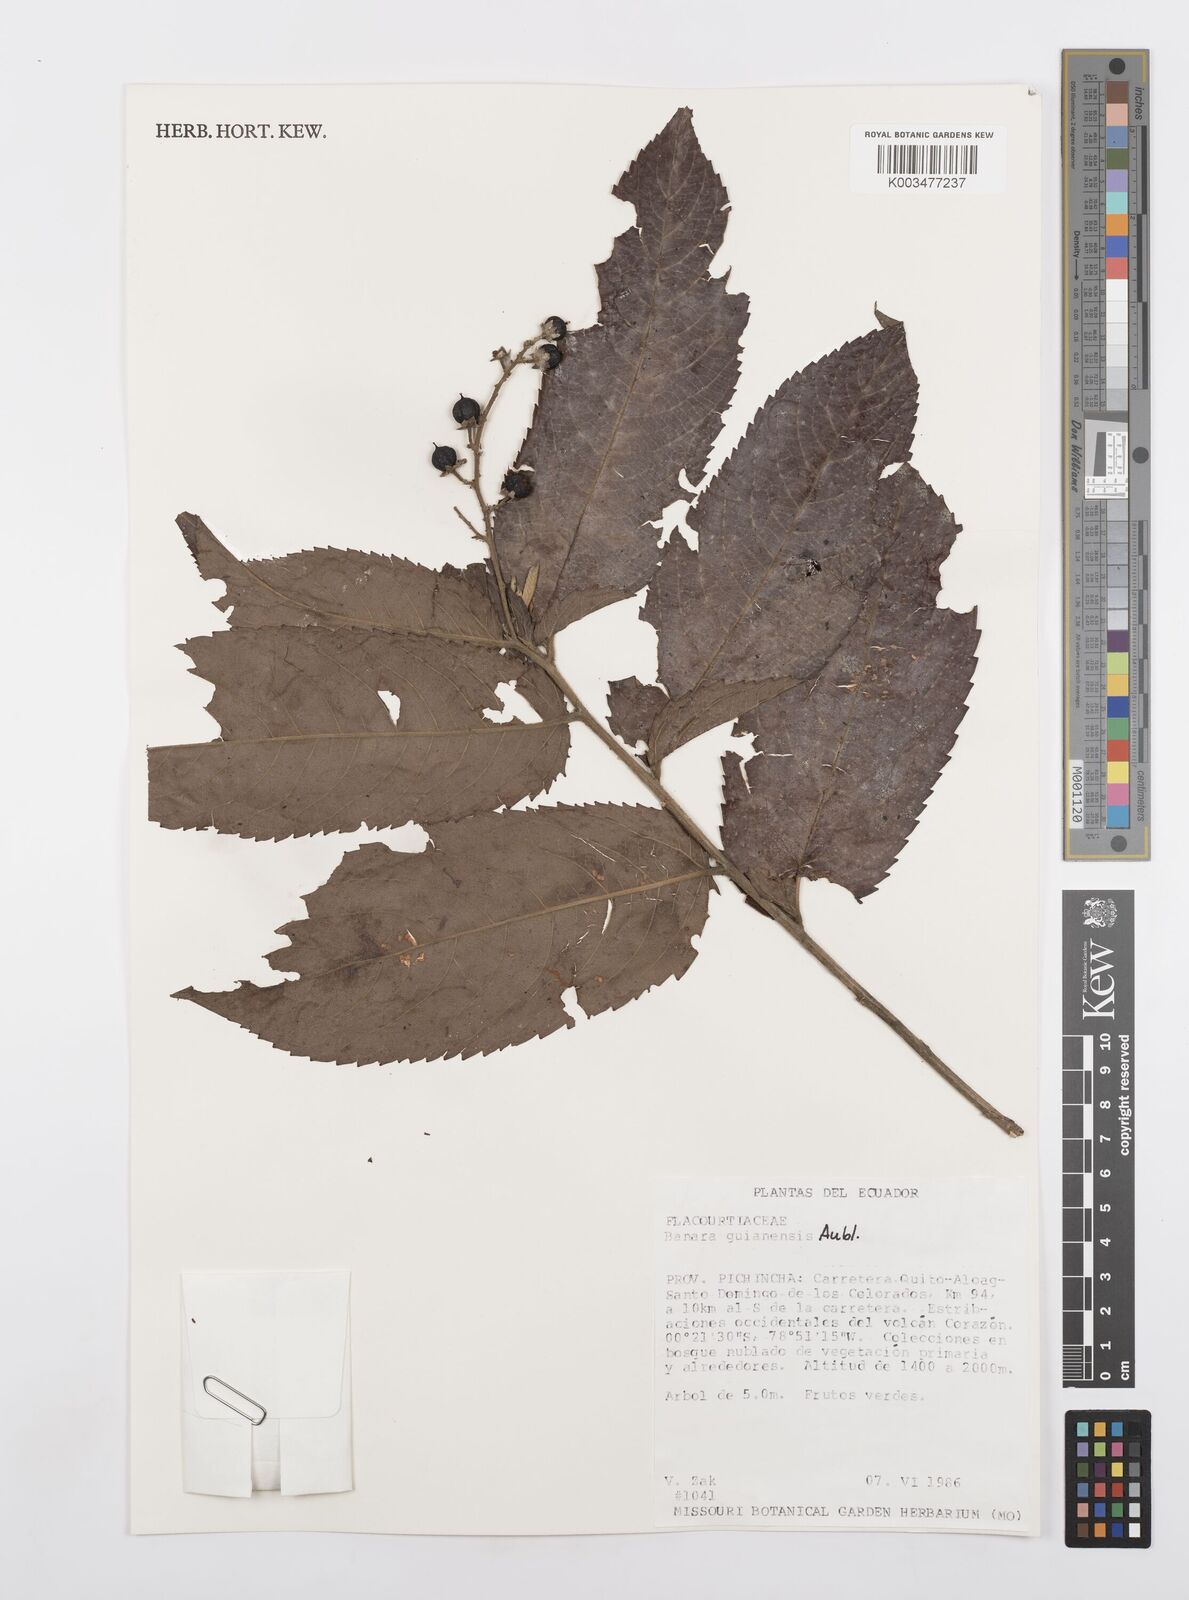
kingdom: Plantae
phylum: Tracheophyta
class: Magnoliopsida
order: Malpighiales
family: Salicaceae
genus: Banara
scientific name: Banara guianensis
